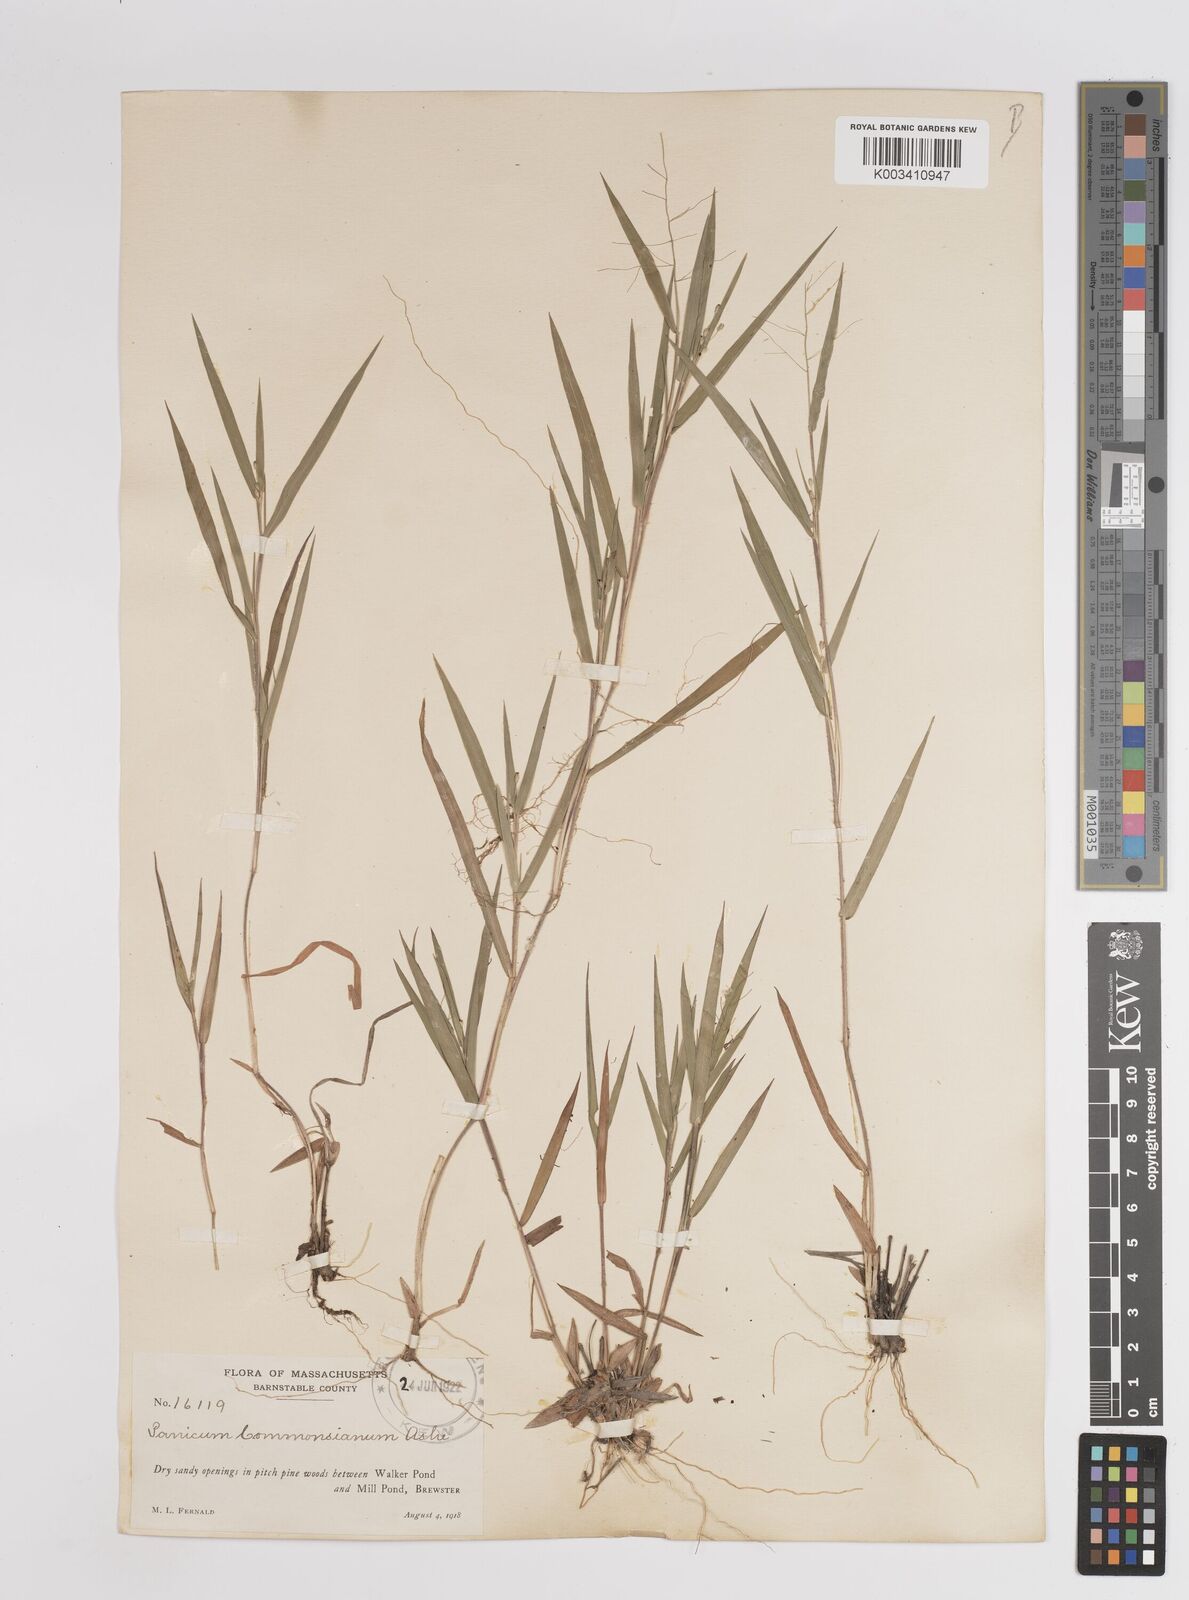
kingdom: Plantae
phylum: Tracheophyta
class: Liliopsida
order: Poales
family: Poaceae
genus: Dichanthelium
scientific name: Dichanthelium commonsianum
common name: Commons' panicgrass
